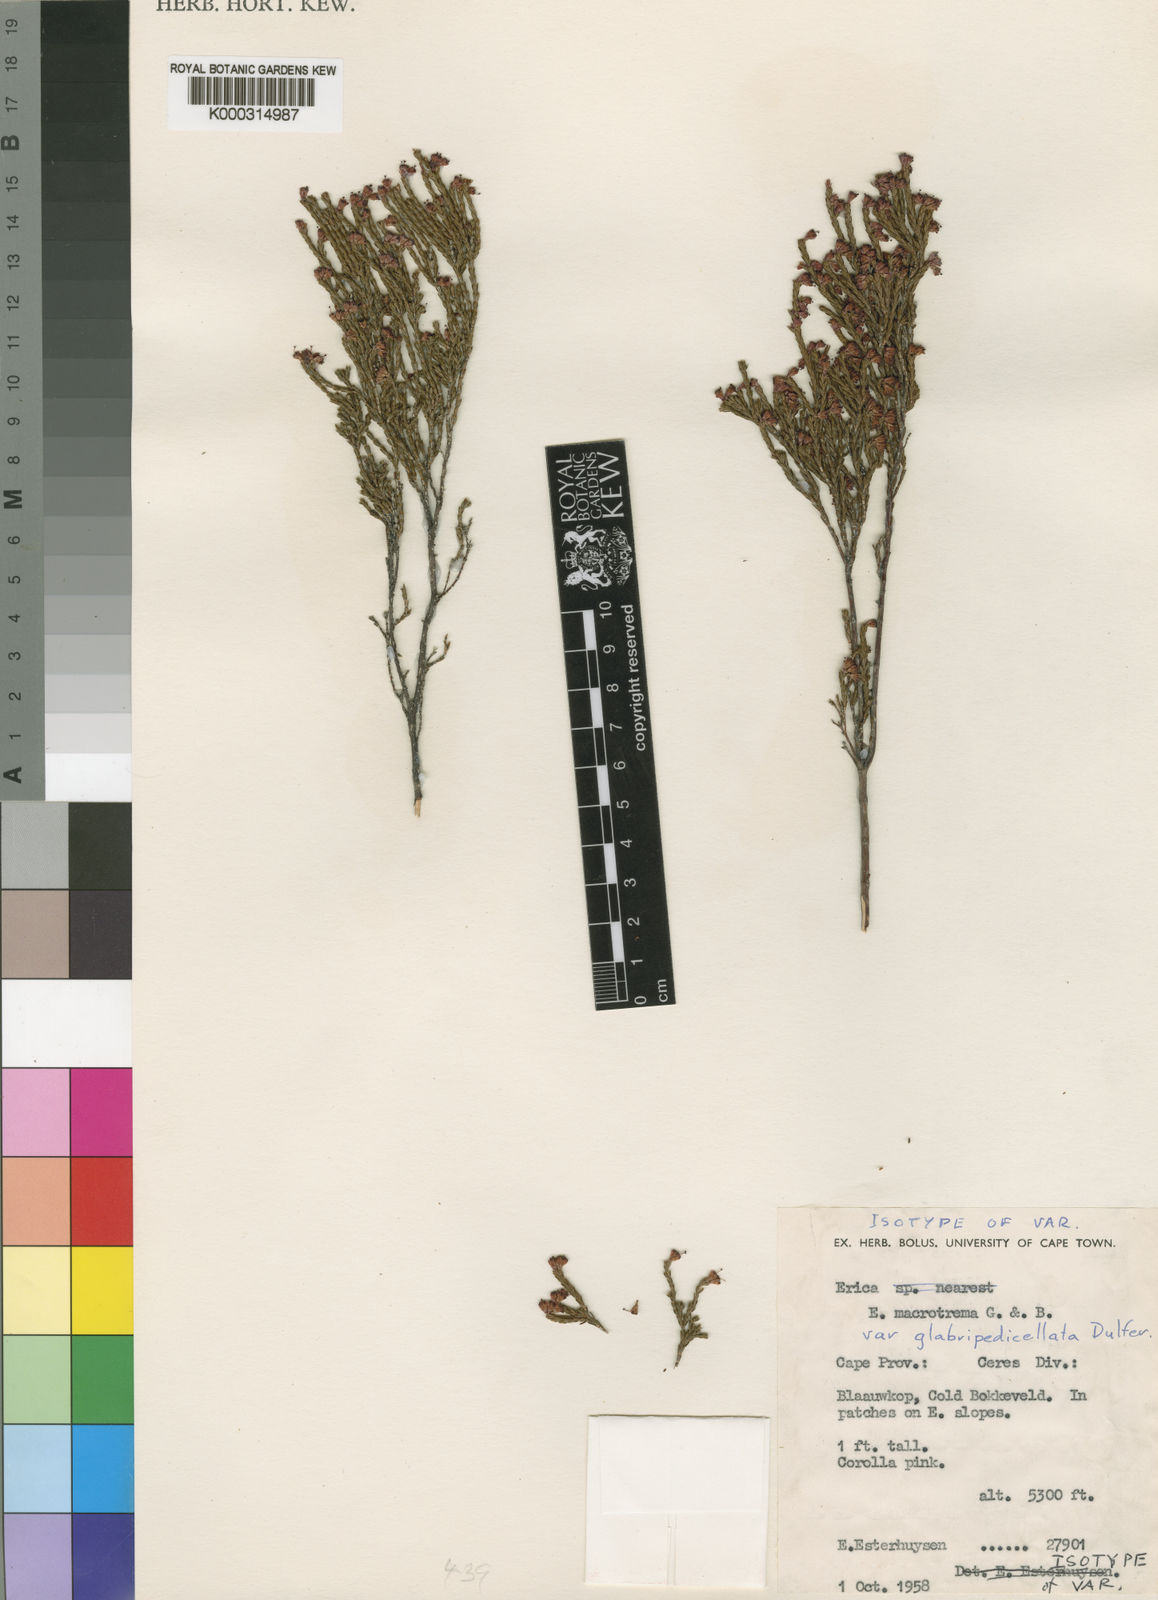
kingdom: Plantae
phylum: Tracheophyta
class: Magnoliopsida
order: Ericales
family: Ericaceae
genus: Erica
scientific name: Erica macrotrema
